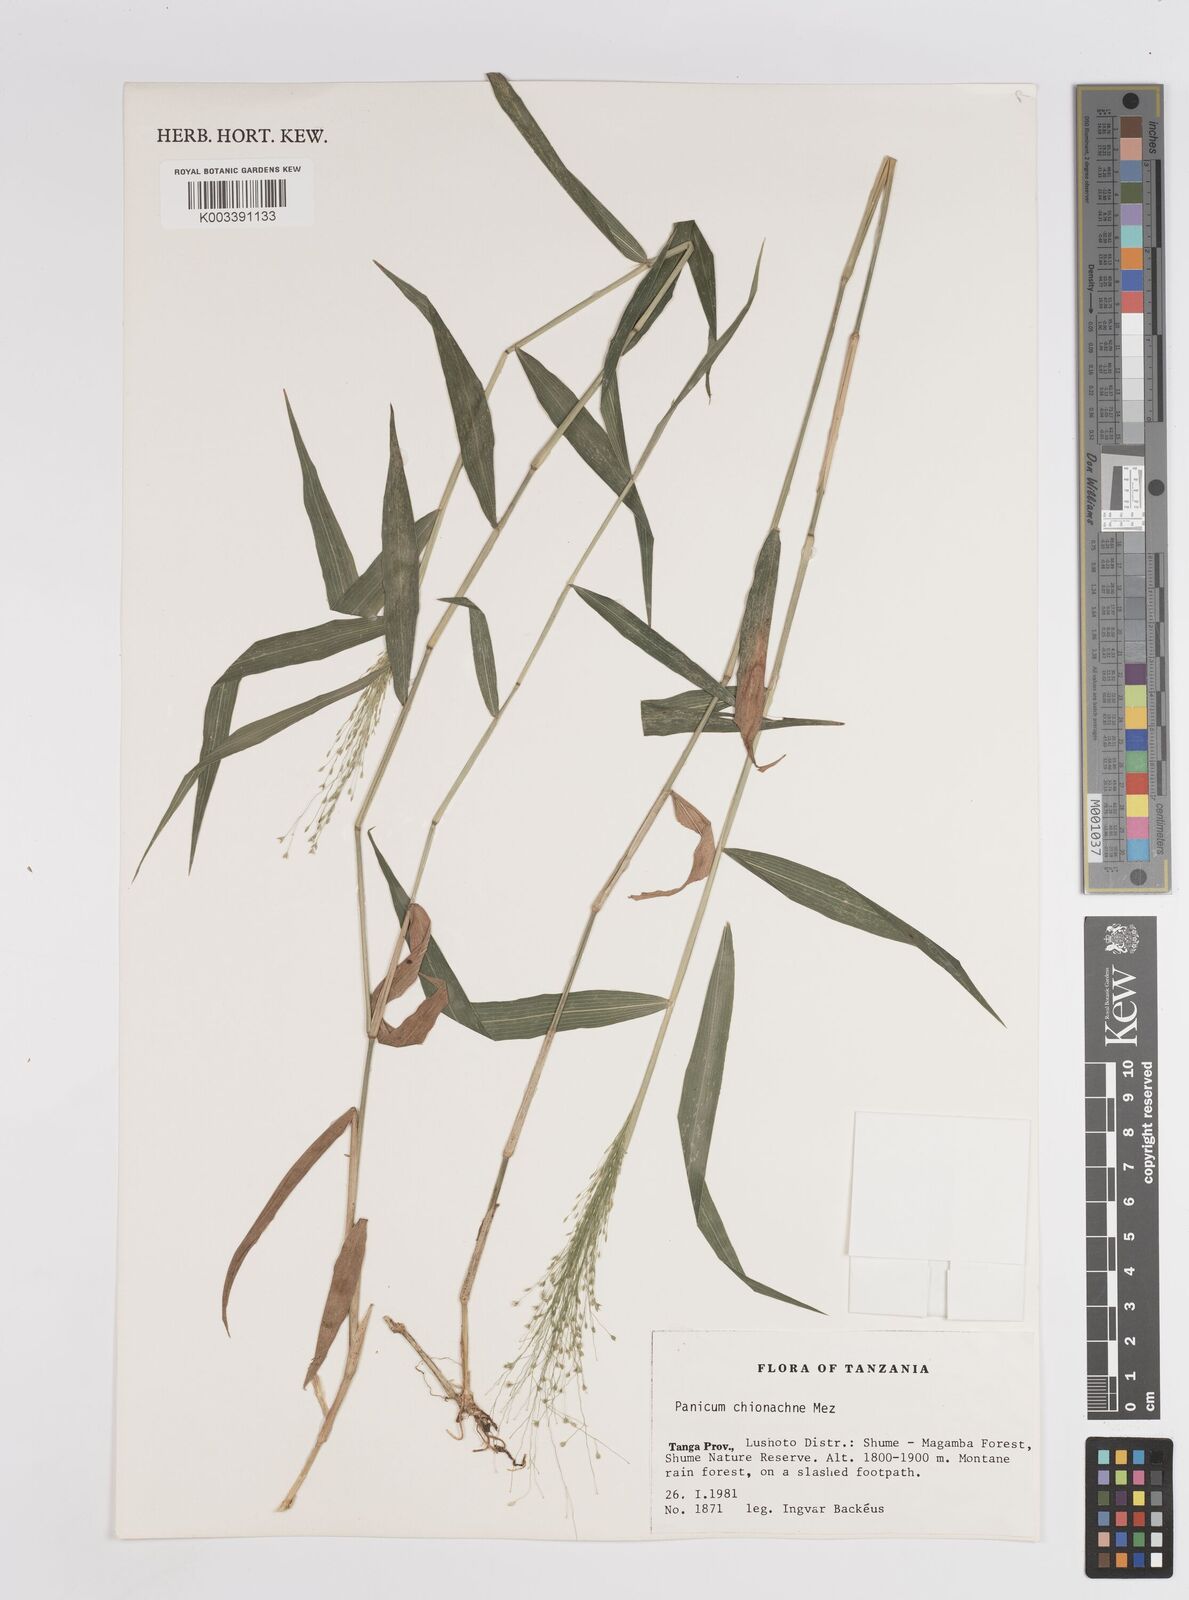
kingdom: Plantae
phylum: Tracheophyta
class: Liliopsida
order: Poales
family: Poaceae
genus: Panicum
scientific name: Panicum chionachne
